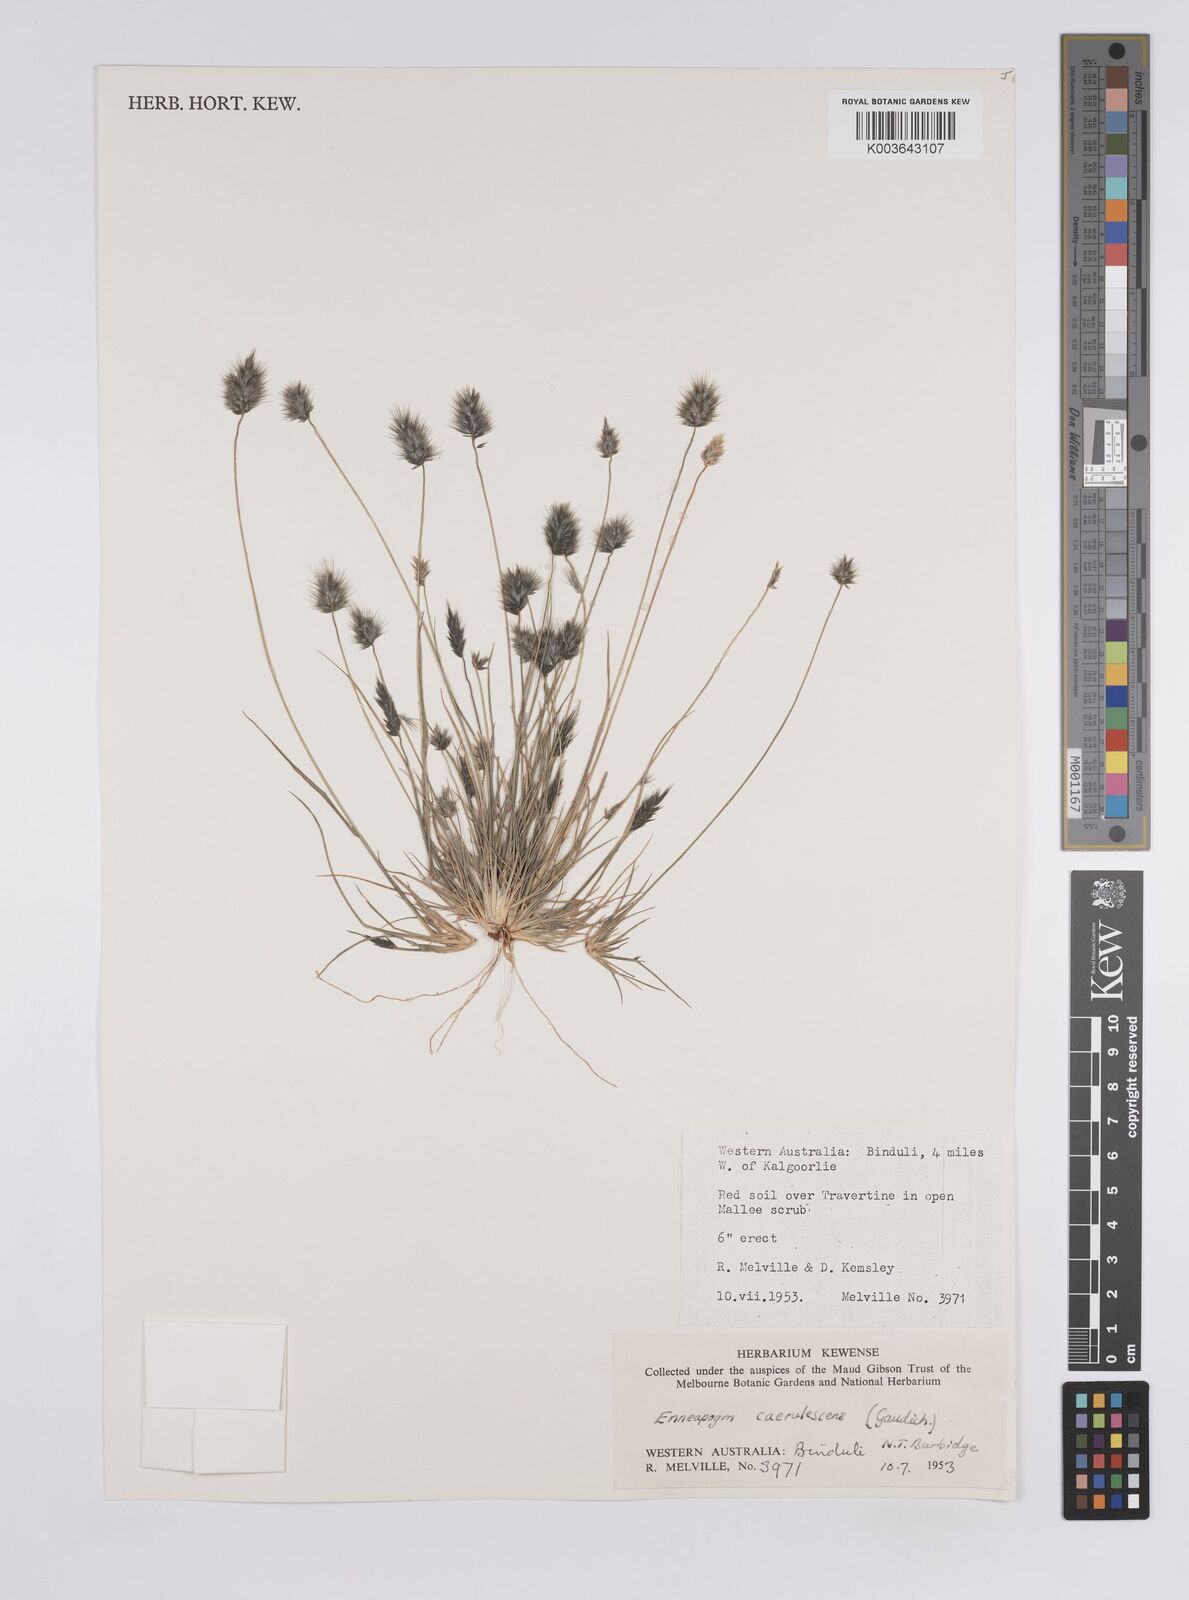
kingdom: Plantae
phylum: Tracheophyta
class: Liliopsida
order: Poales
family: Poaceae
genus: Enneapogon
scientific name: Enneapogon caerulescens
